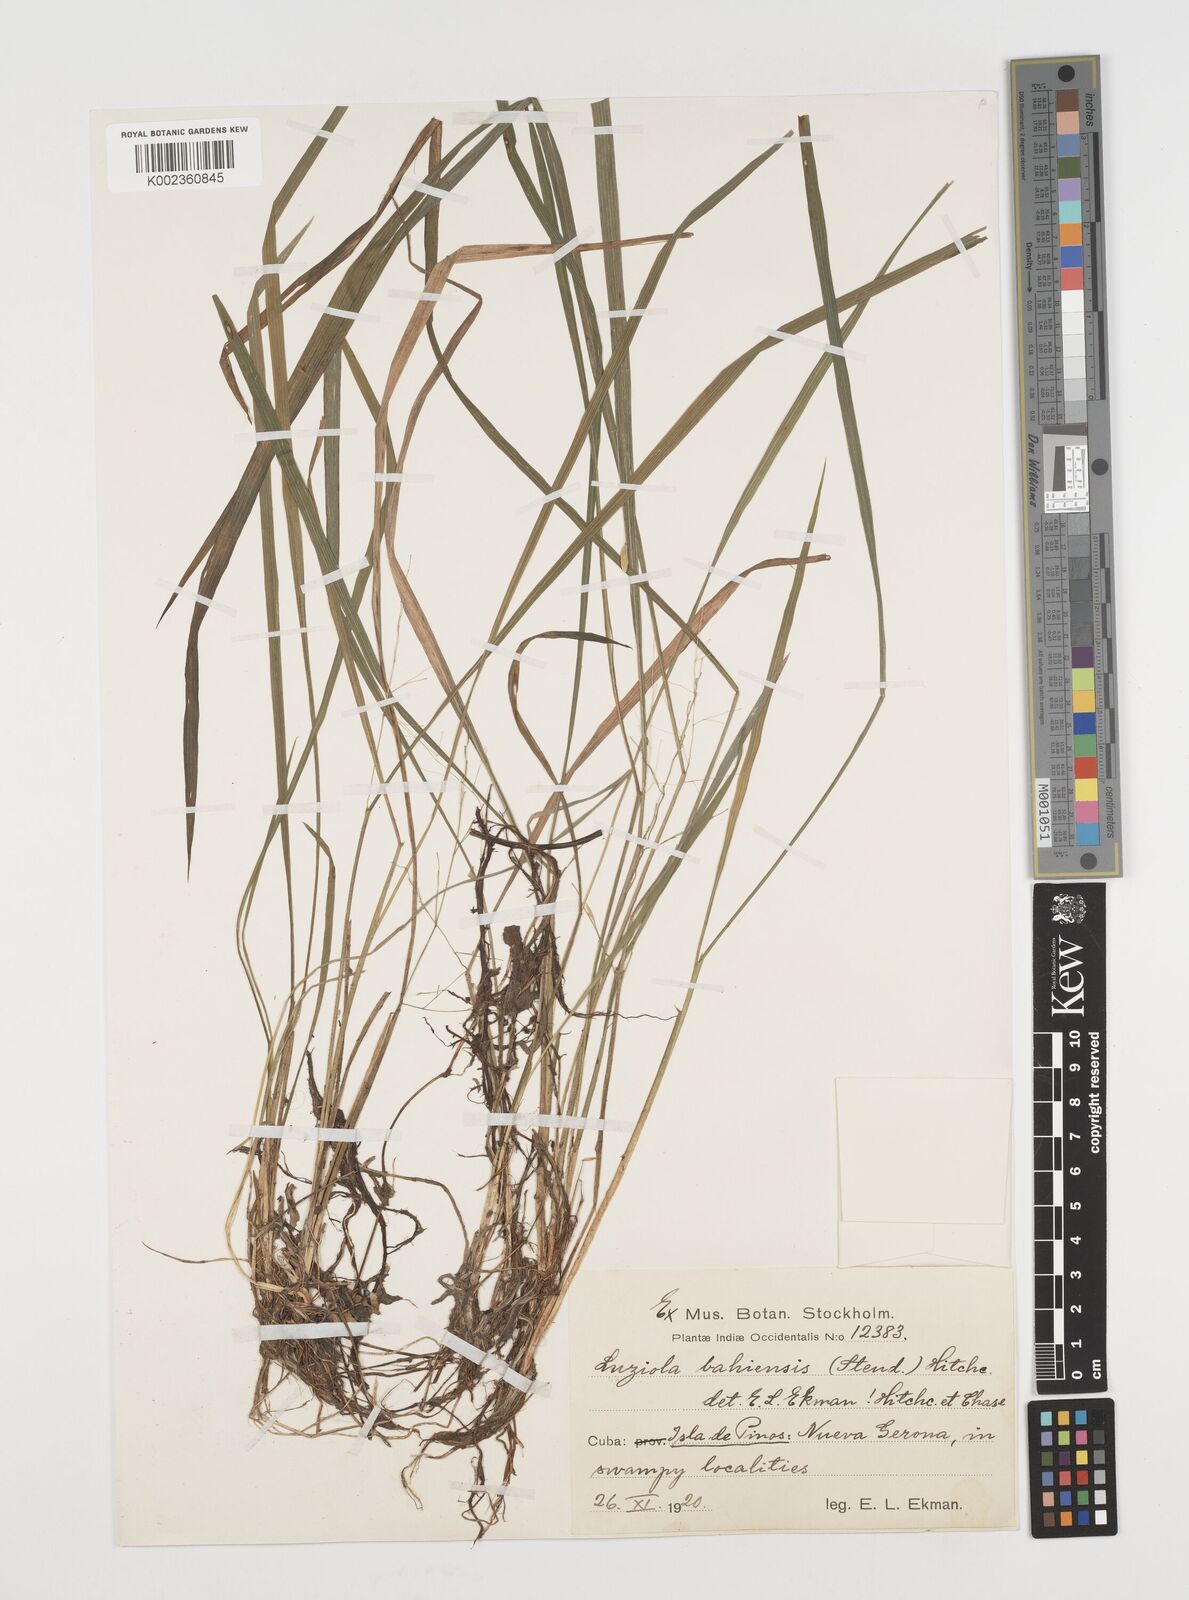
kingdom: Plantae
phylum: Tracheophyta
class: Liliopsida
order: Poales
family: Poaceae
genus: Luziola
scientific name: Luziola bahiensis
